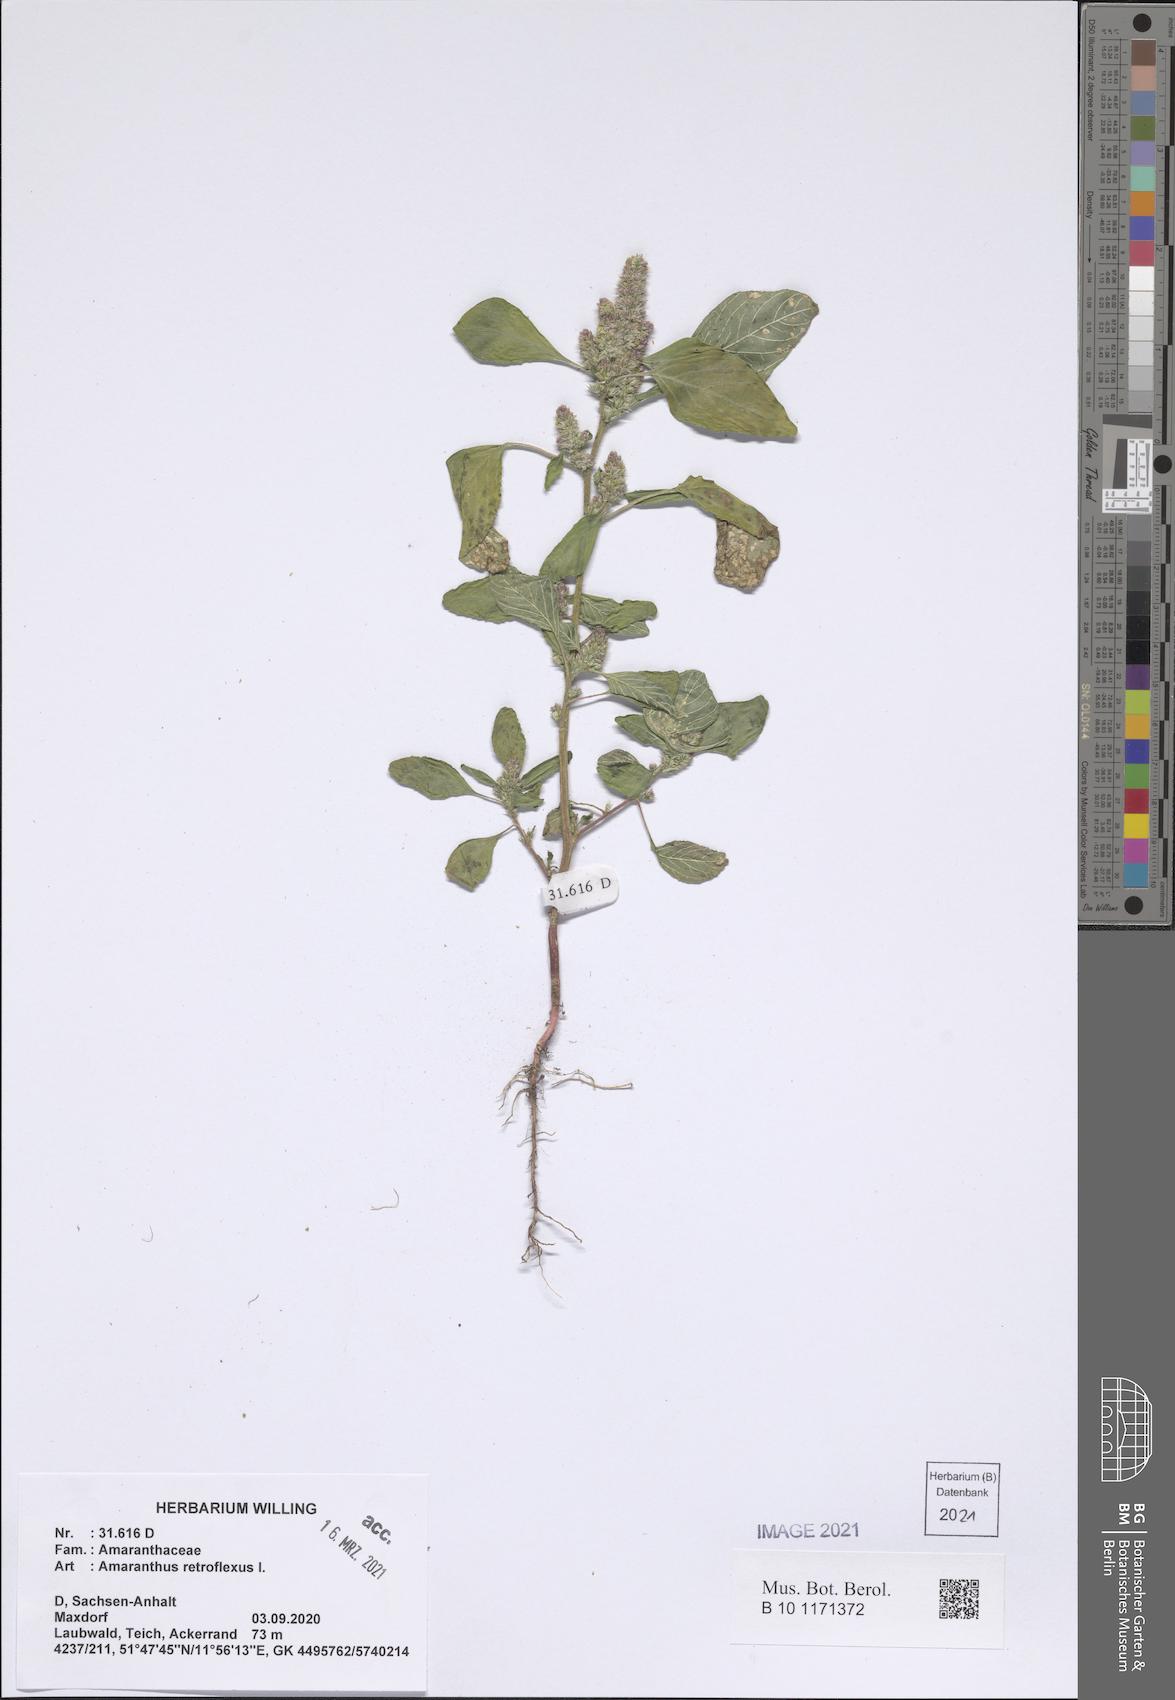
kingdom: Plantae
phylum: Tracheophyta
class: Magnoliopsida
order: Caryophyllales
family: Amaranthaceae
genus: Amaranthus
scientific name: Amaranthus retroflexus
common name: Redroot amaranth
